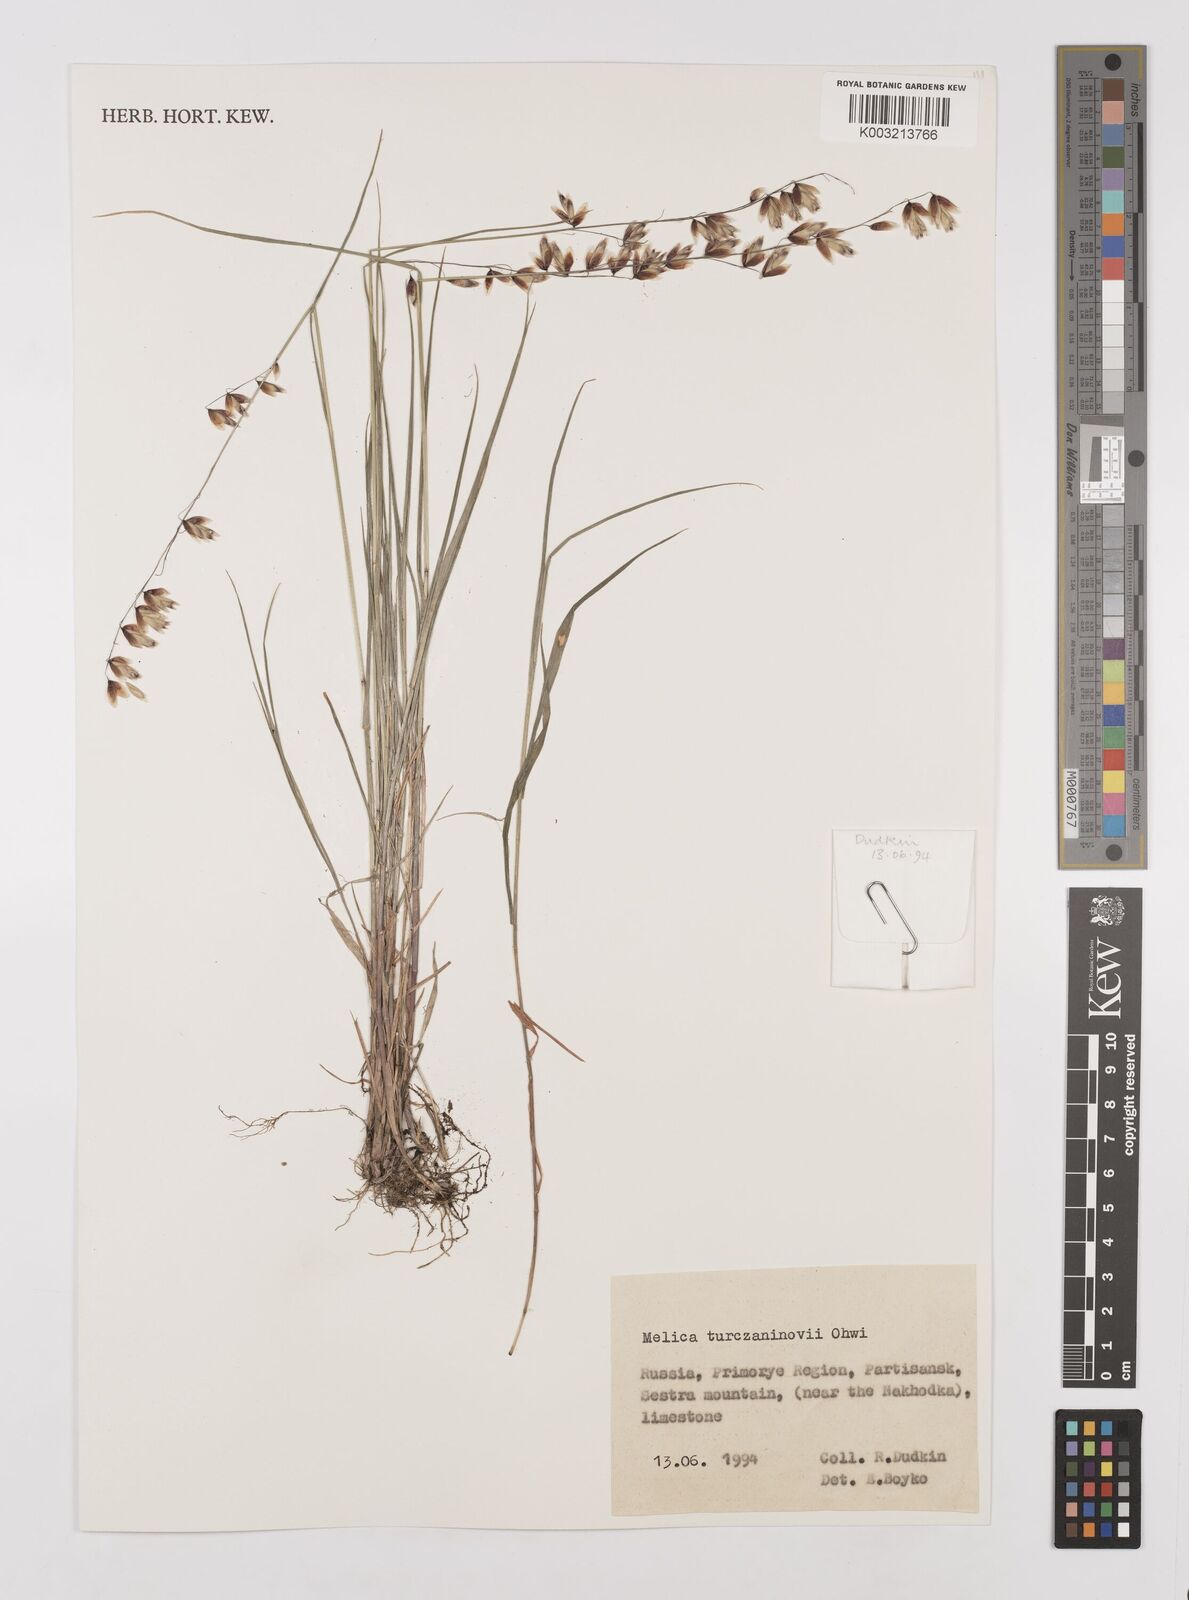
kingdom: Plantae
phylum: Tracheophyta
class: Liliopsida
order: Poales
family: Poaceae
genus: Melica
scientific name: Melica turczaninowiana
